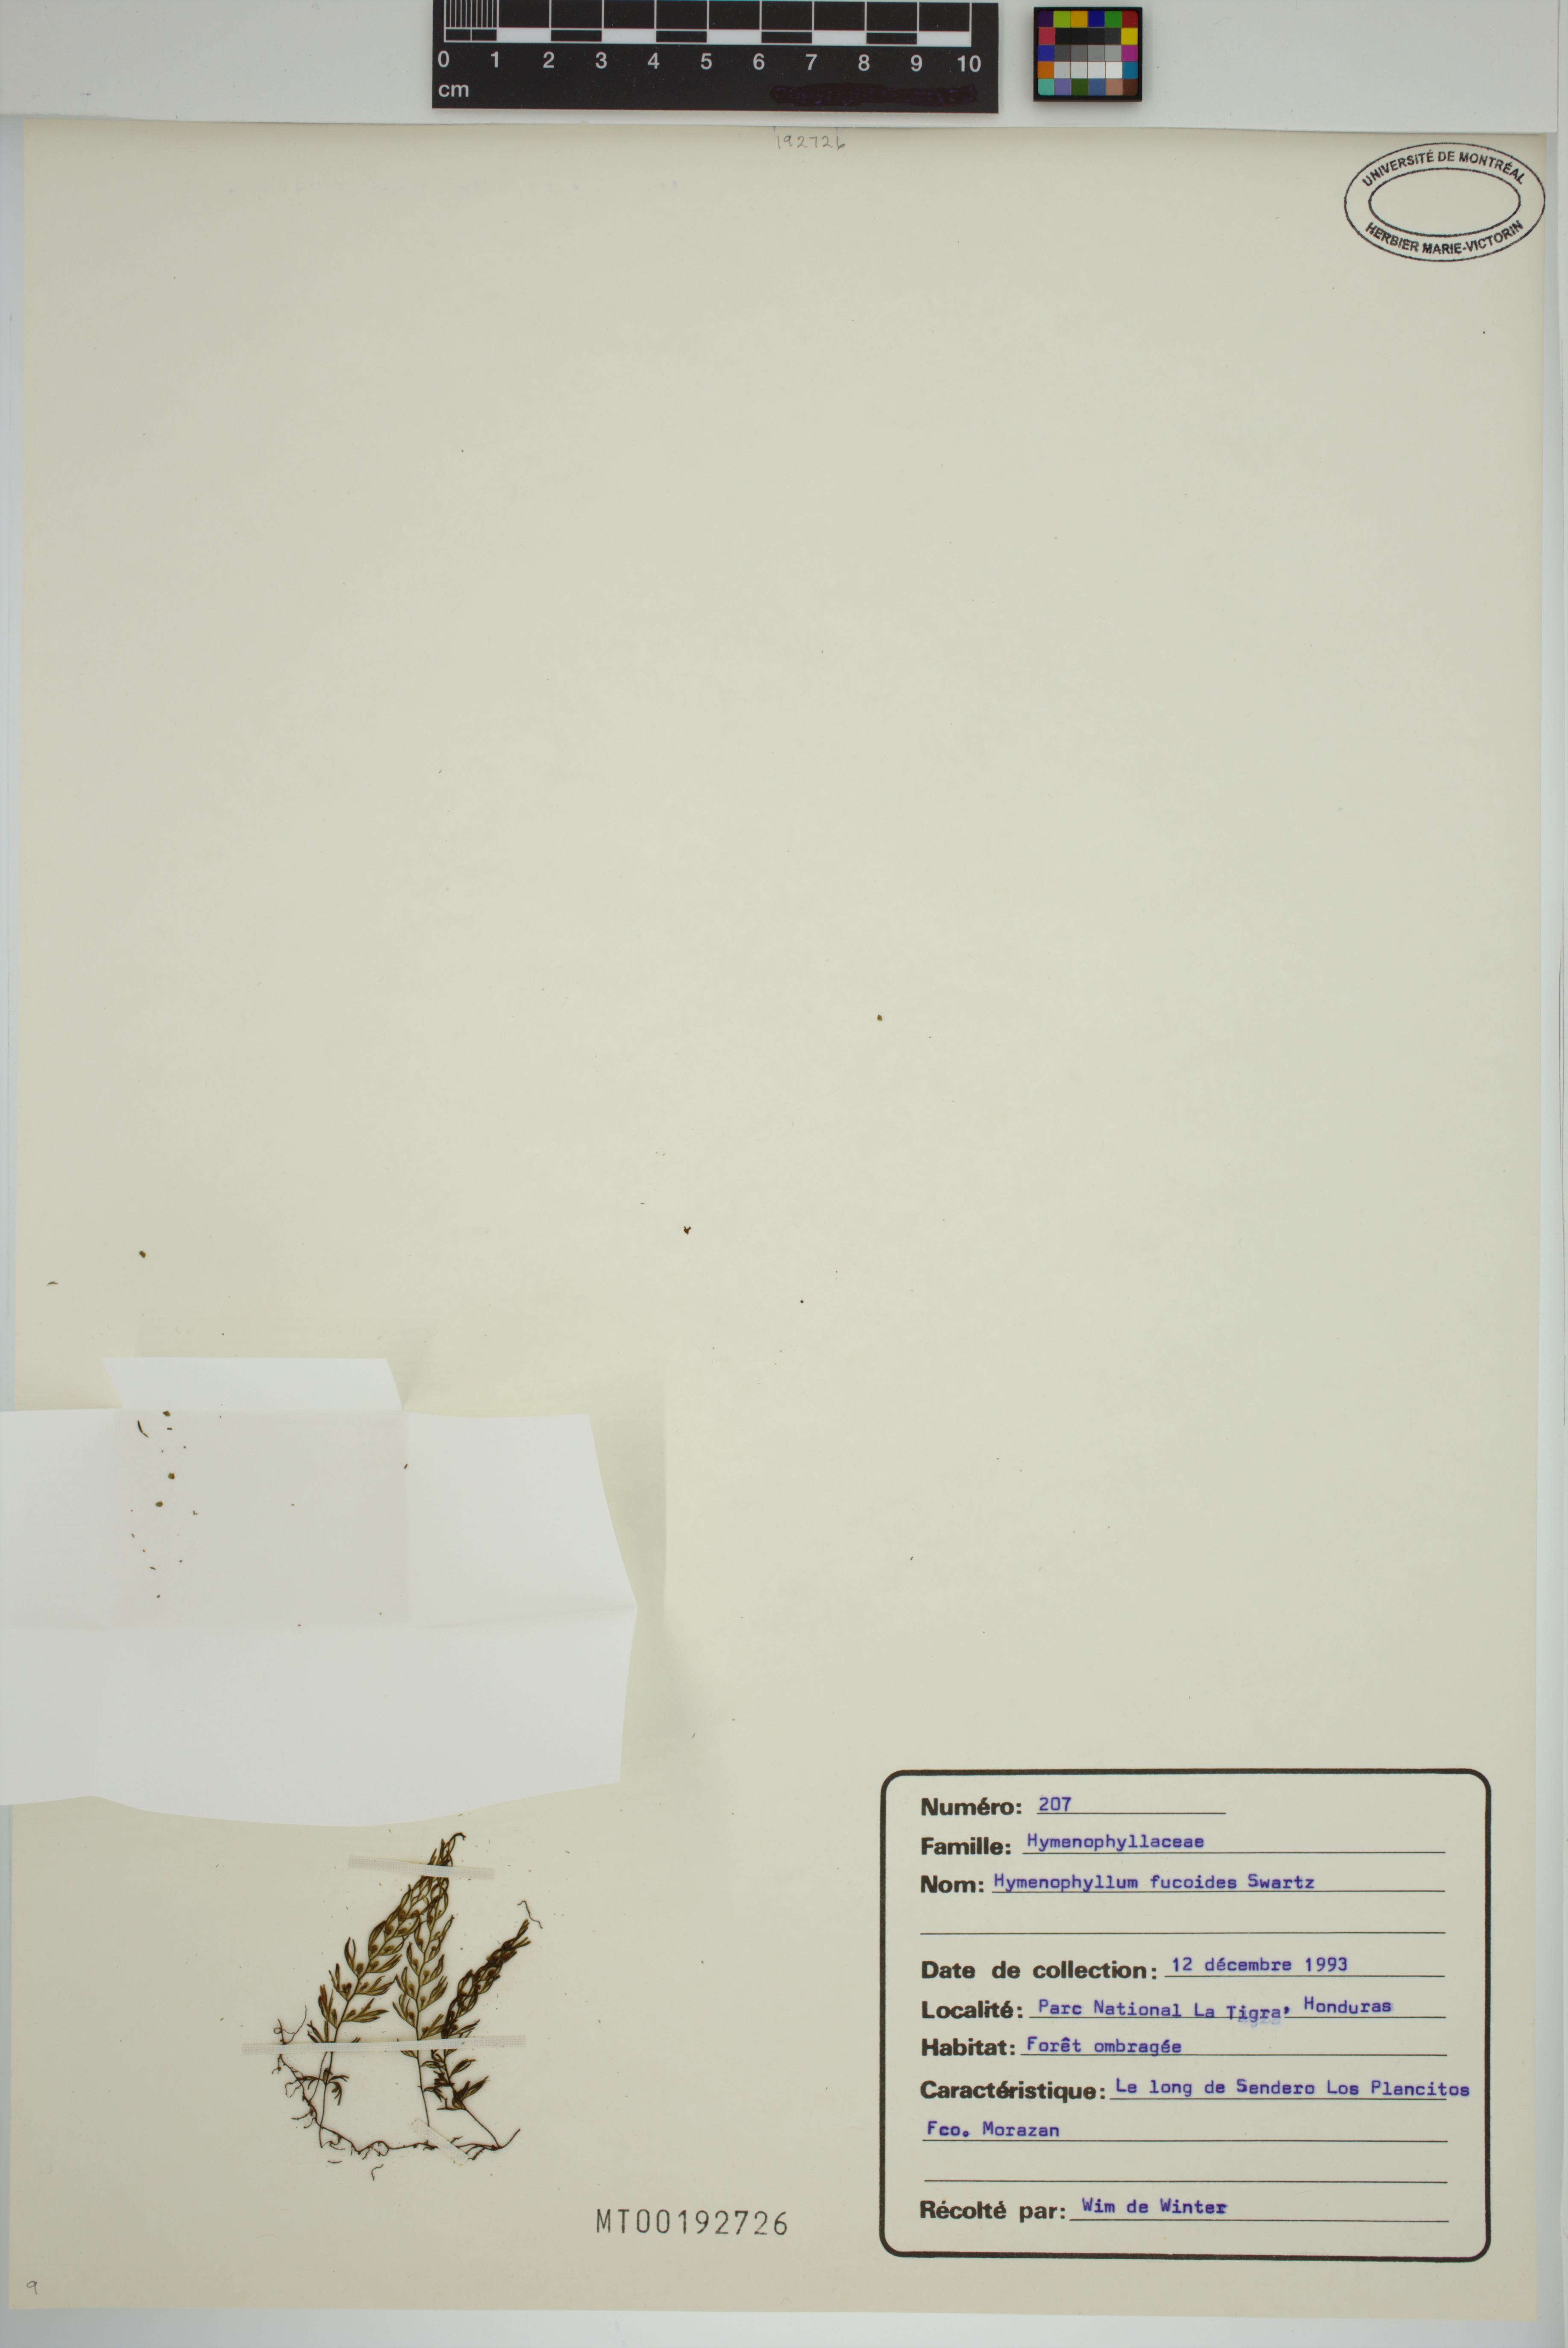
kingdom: Plantae
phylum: Tracheophyta
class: Polypodiopsida
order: Hymenophyllales
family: Hymenophyllaceae
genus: Hymenophyllum
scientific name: Hymenophyllum fucoides
